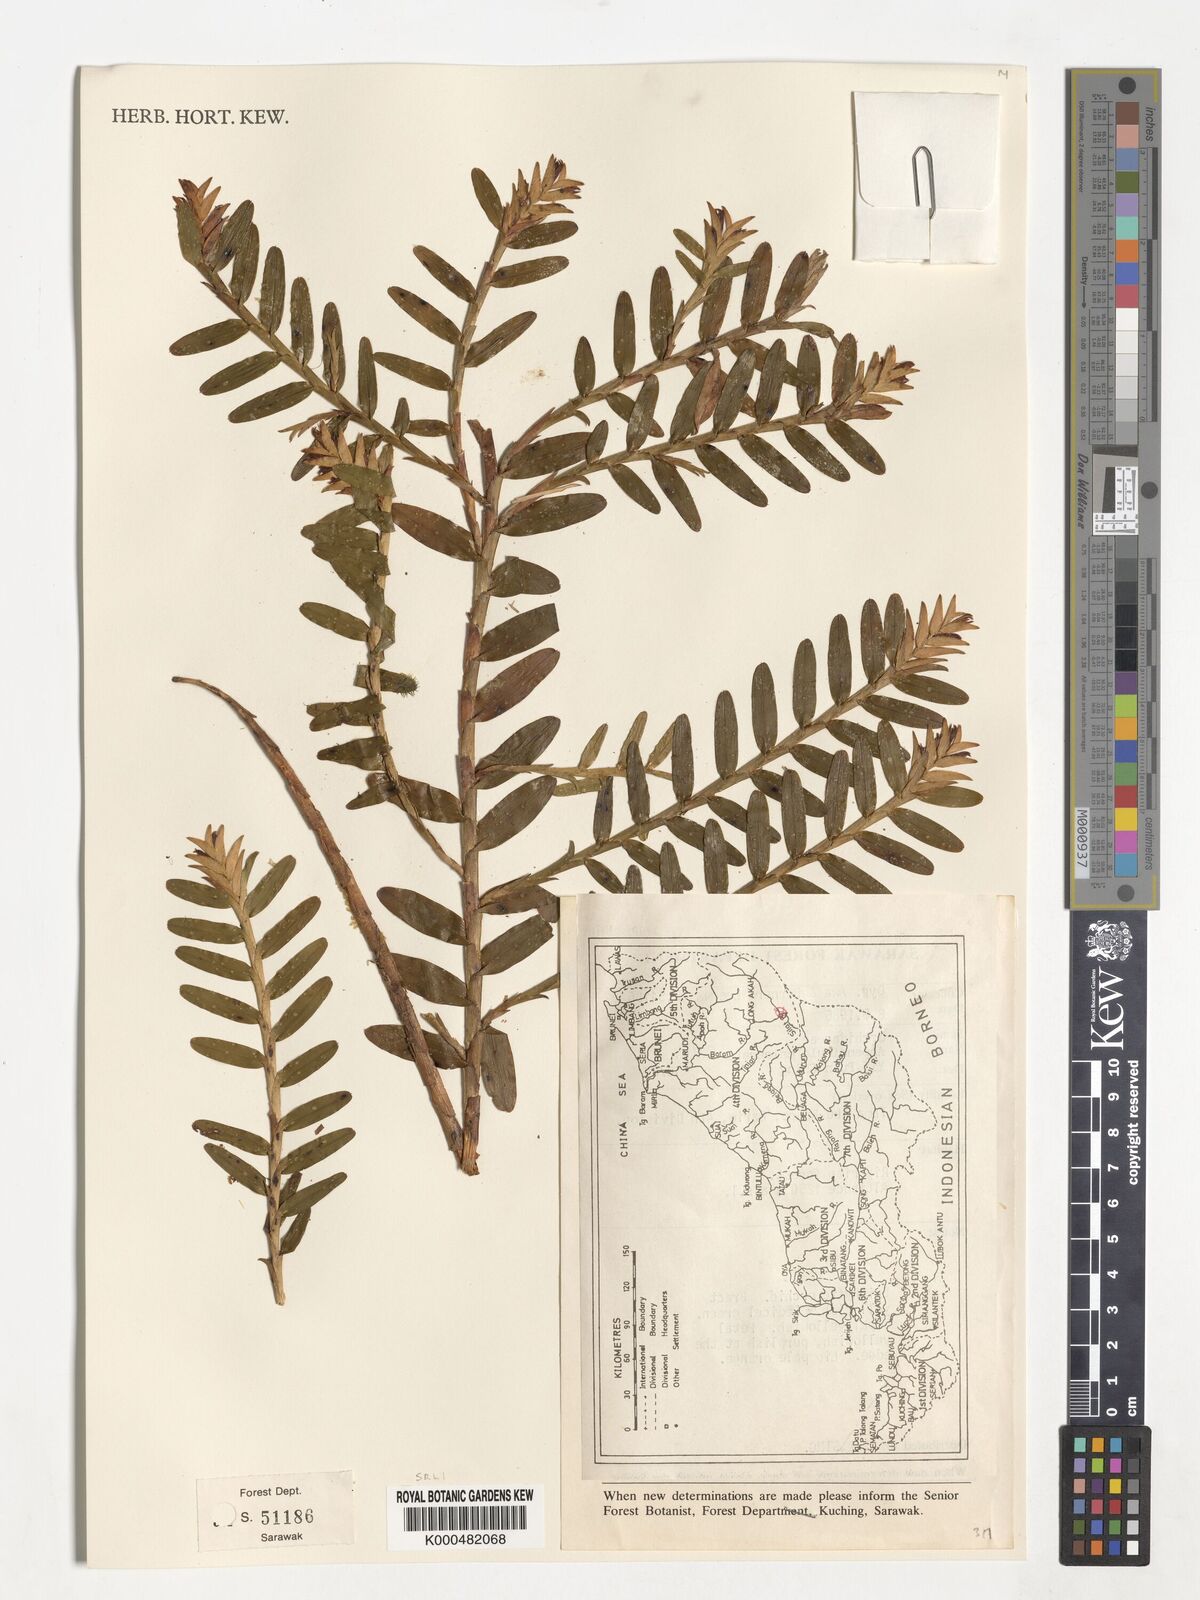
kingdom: Plantae
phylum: Tracheophyta
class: Liliopsida
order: Asparagales
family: Orchidaceae
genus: Appendicula
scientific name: Appendicula calcarata
